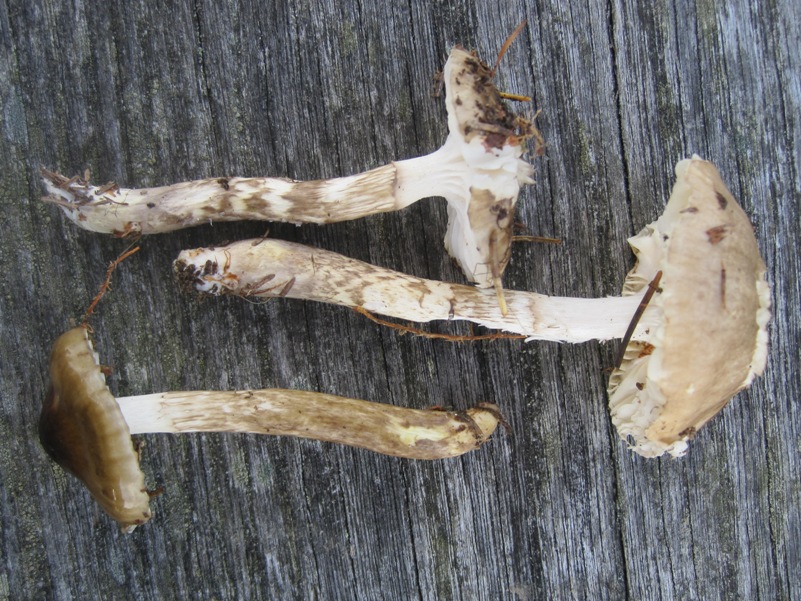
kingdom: Fungi
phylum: Basidiomycota
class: Agaricomycetes
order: Agaricales
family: Hygrophoraceae
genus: Hygrophorus
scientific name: Hygrophorus olivaceoalbus
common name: hvidbrun sneglehat
